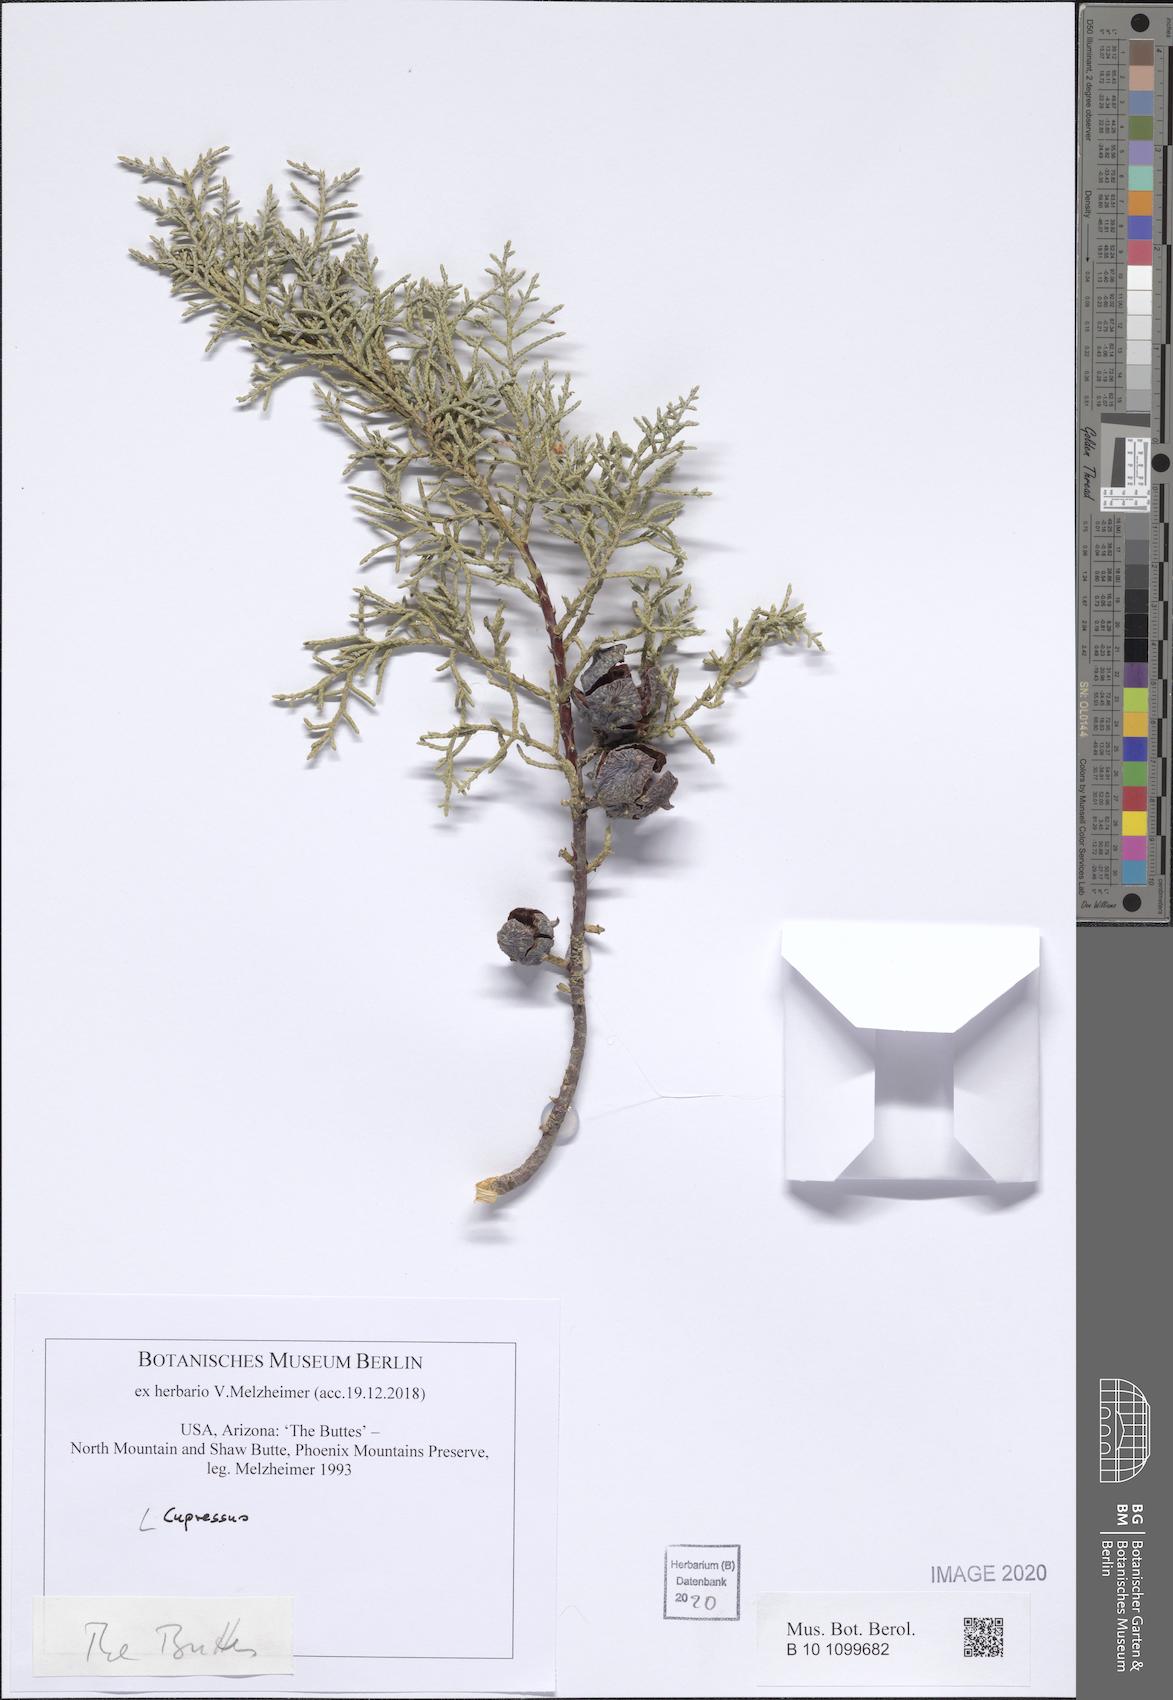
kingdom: Plantae
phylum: Tracheophyta
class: Pinopsida
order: Pinales
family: Cupressaceae
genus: Cupressus
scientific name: Cupressus
